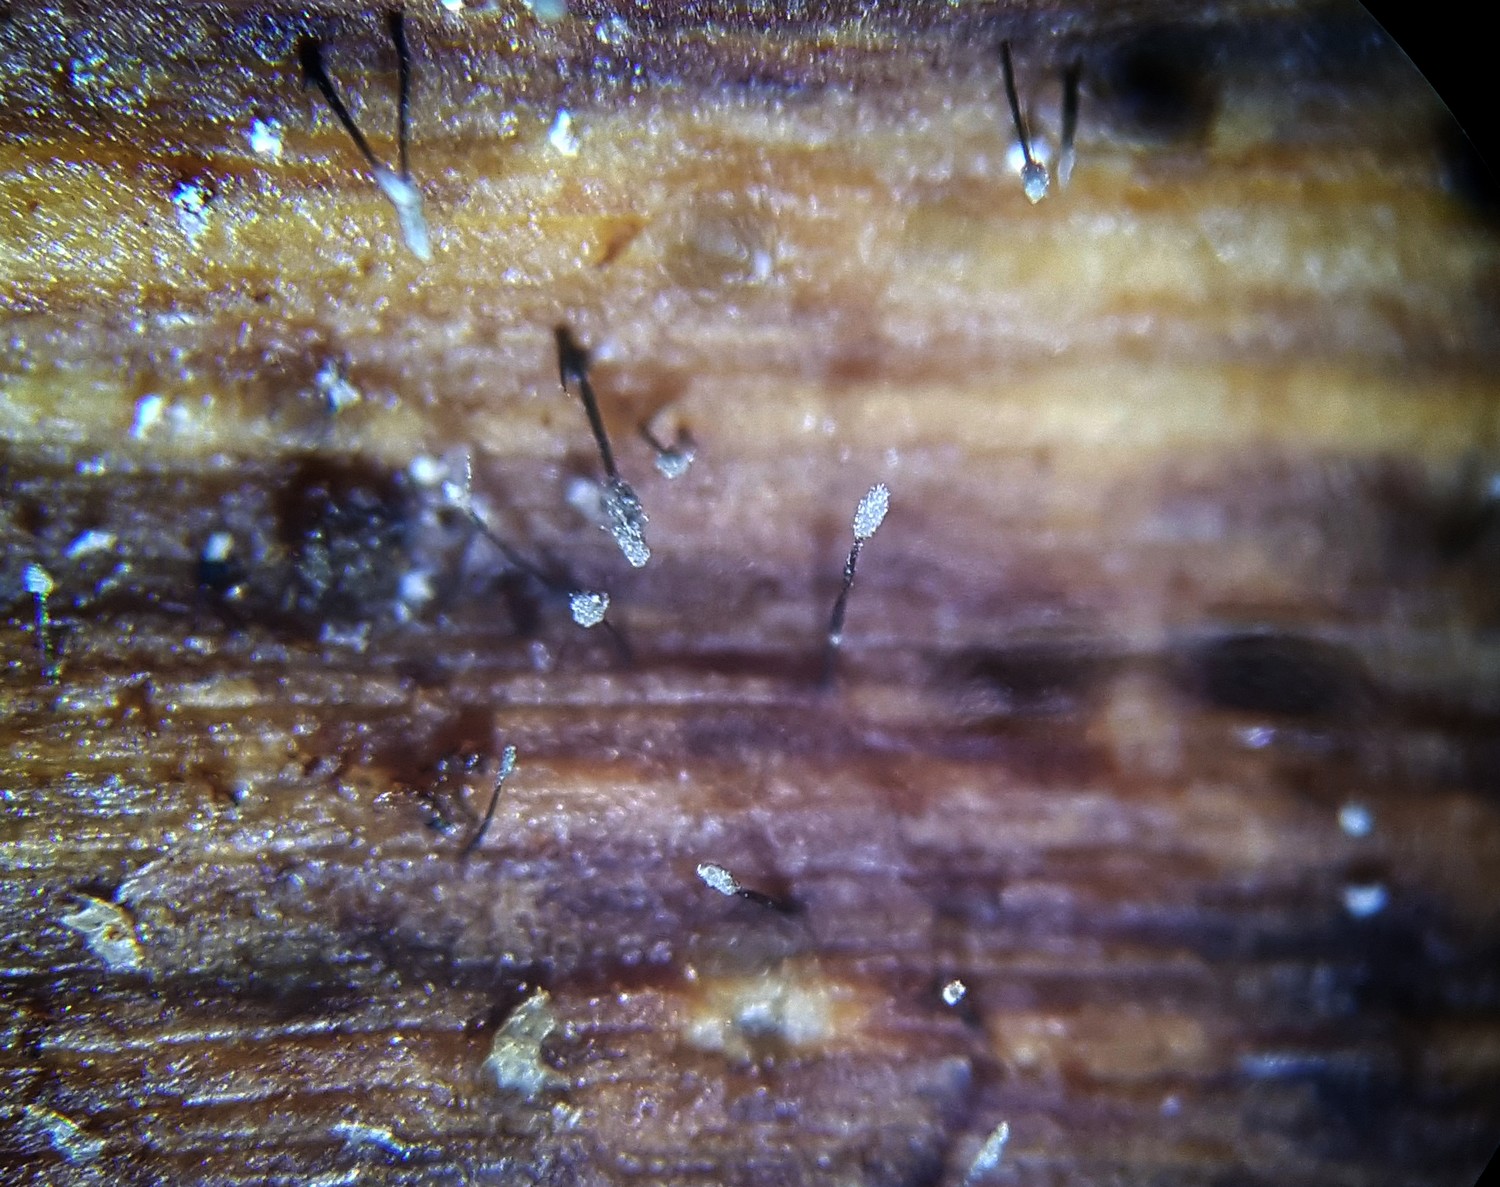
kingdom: Fungi
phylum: Ascomycota
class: Sordariomycetes
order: Microascales
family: Microascaceae
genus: Cephalotrichum
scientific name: Cephalotrichum stemonitis
